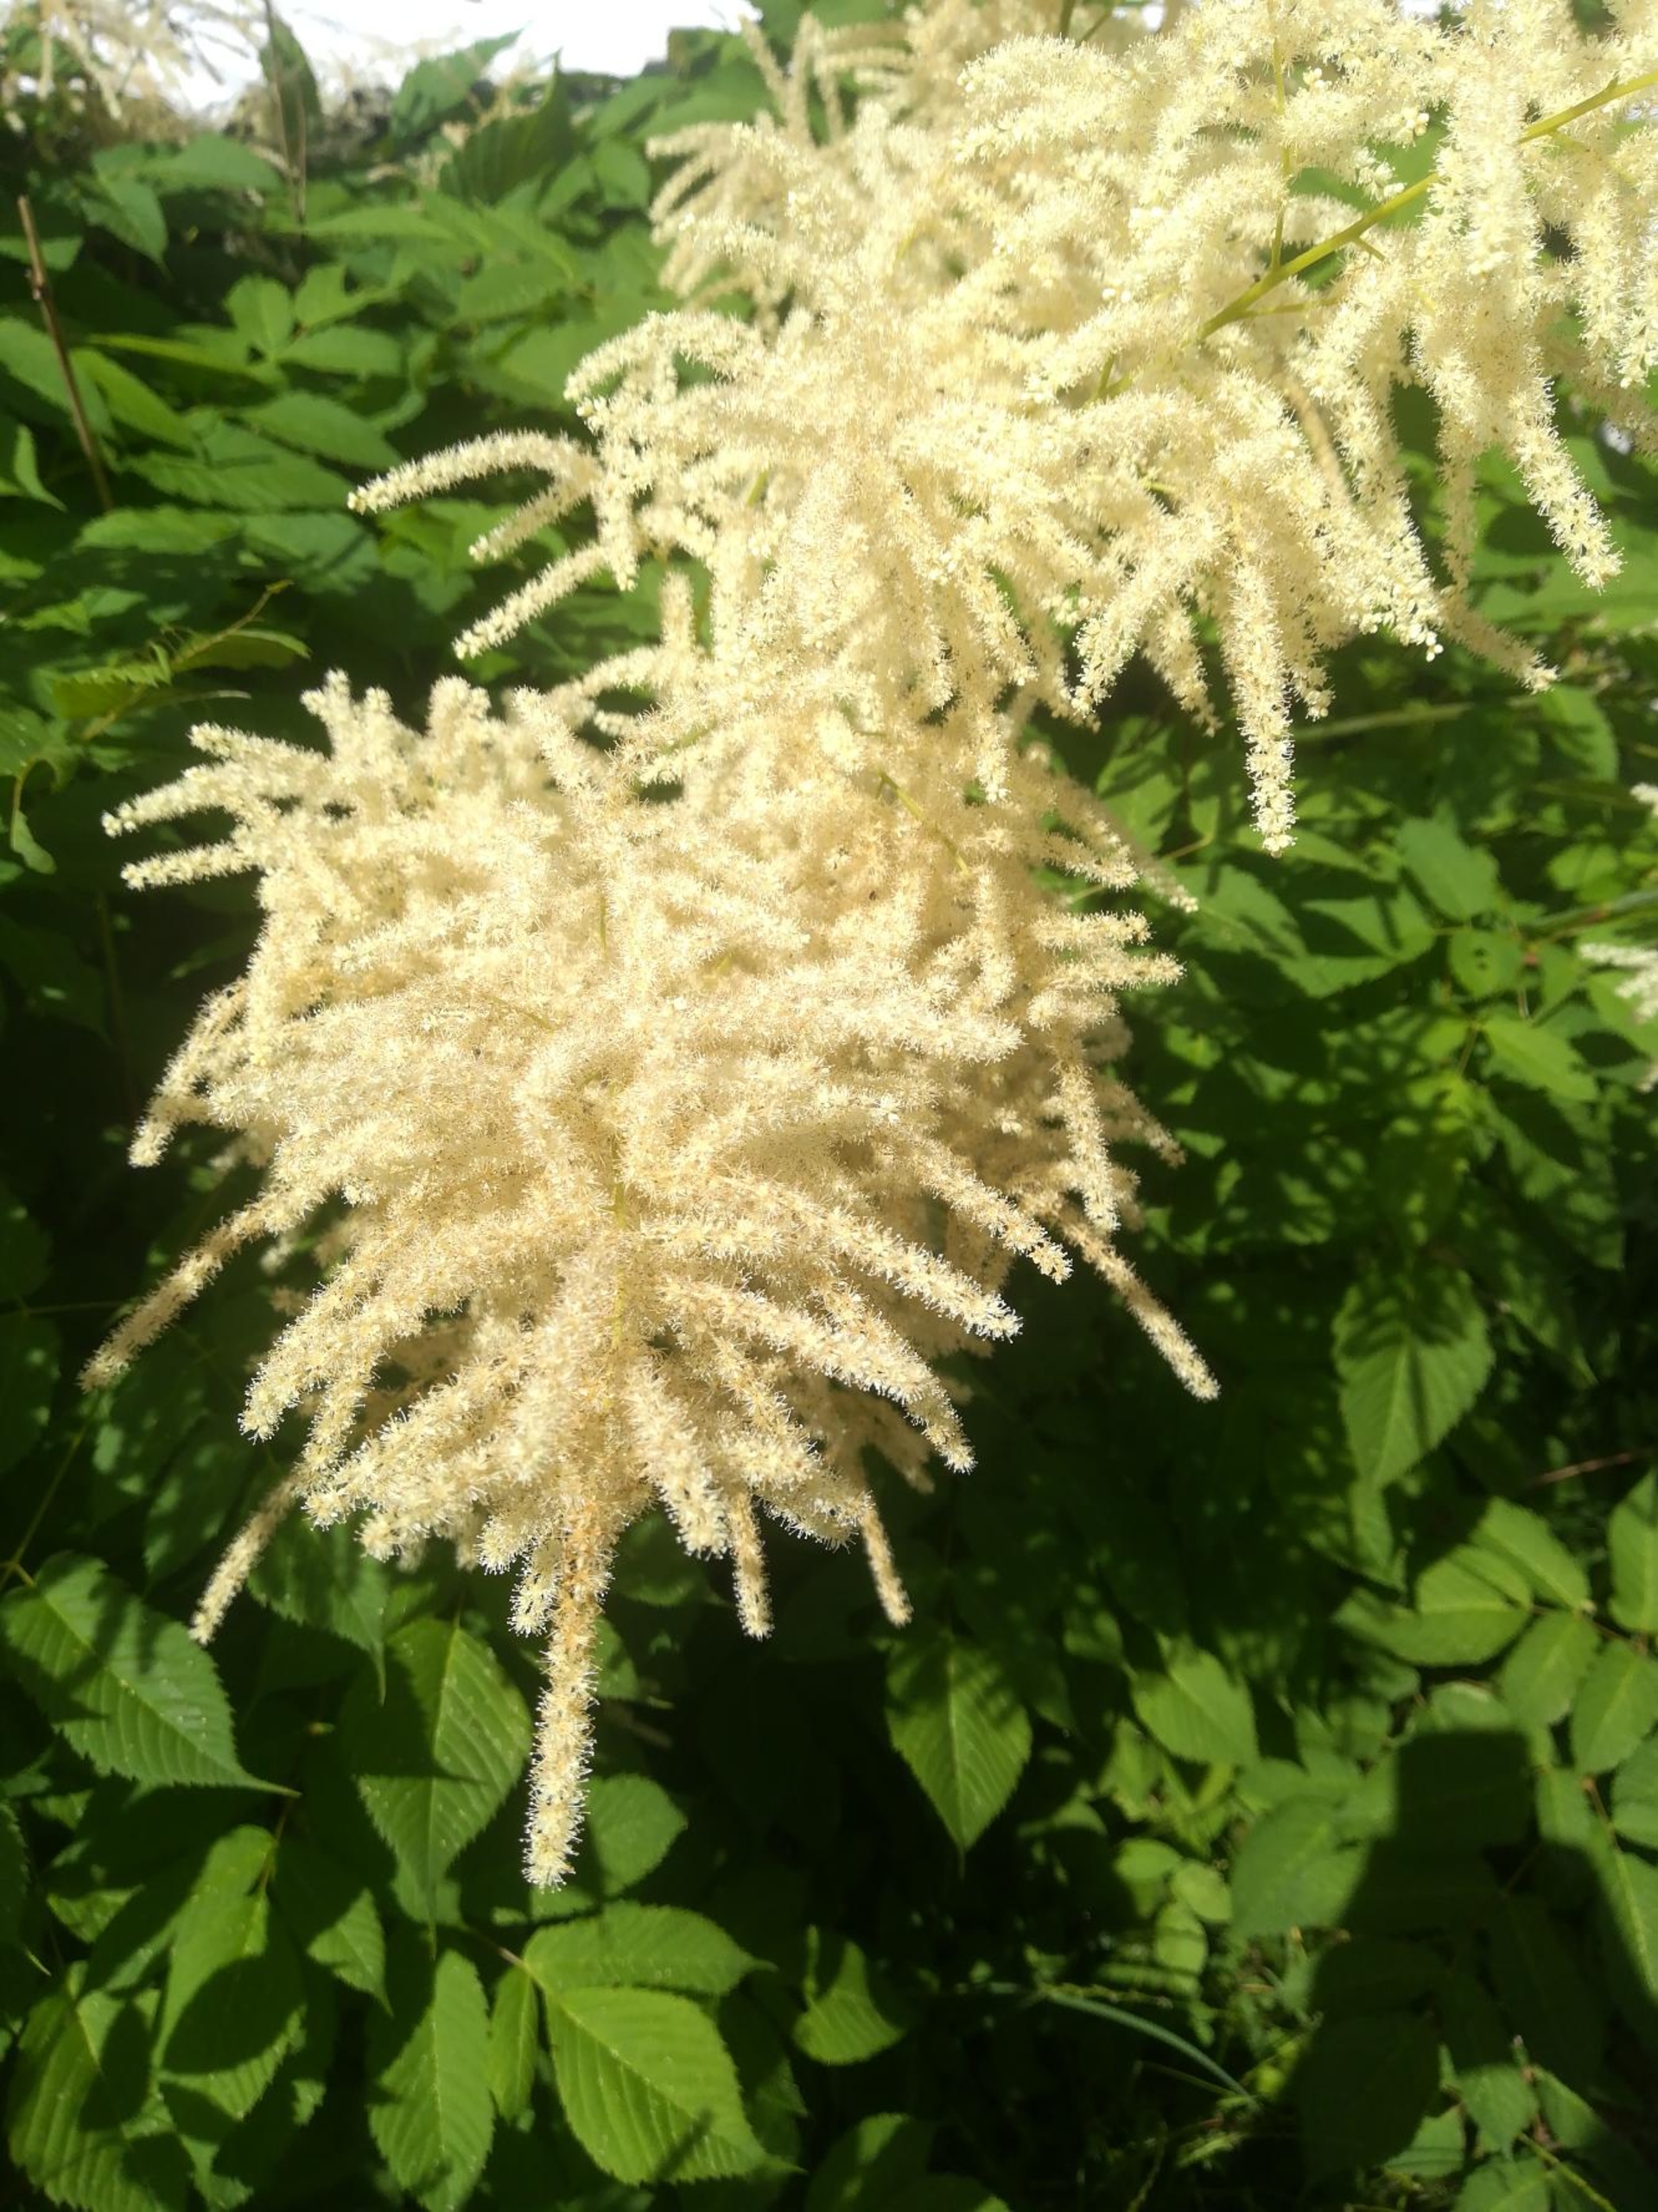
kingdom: Plantae
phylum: Tracheophyta
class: Magnoliopsida
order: Rosales
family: Rosaceae
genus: Aruncus
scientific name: Aruncus dioicus
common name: Fjerbusk
